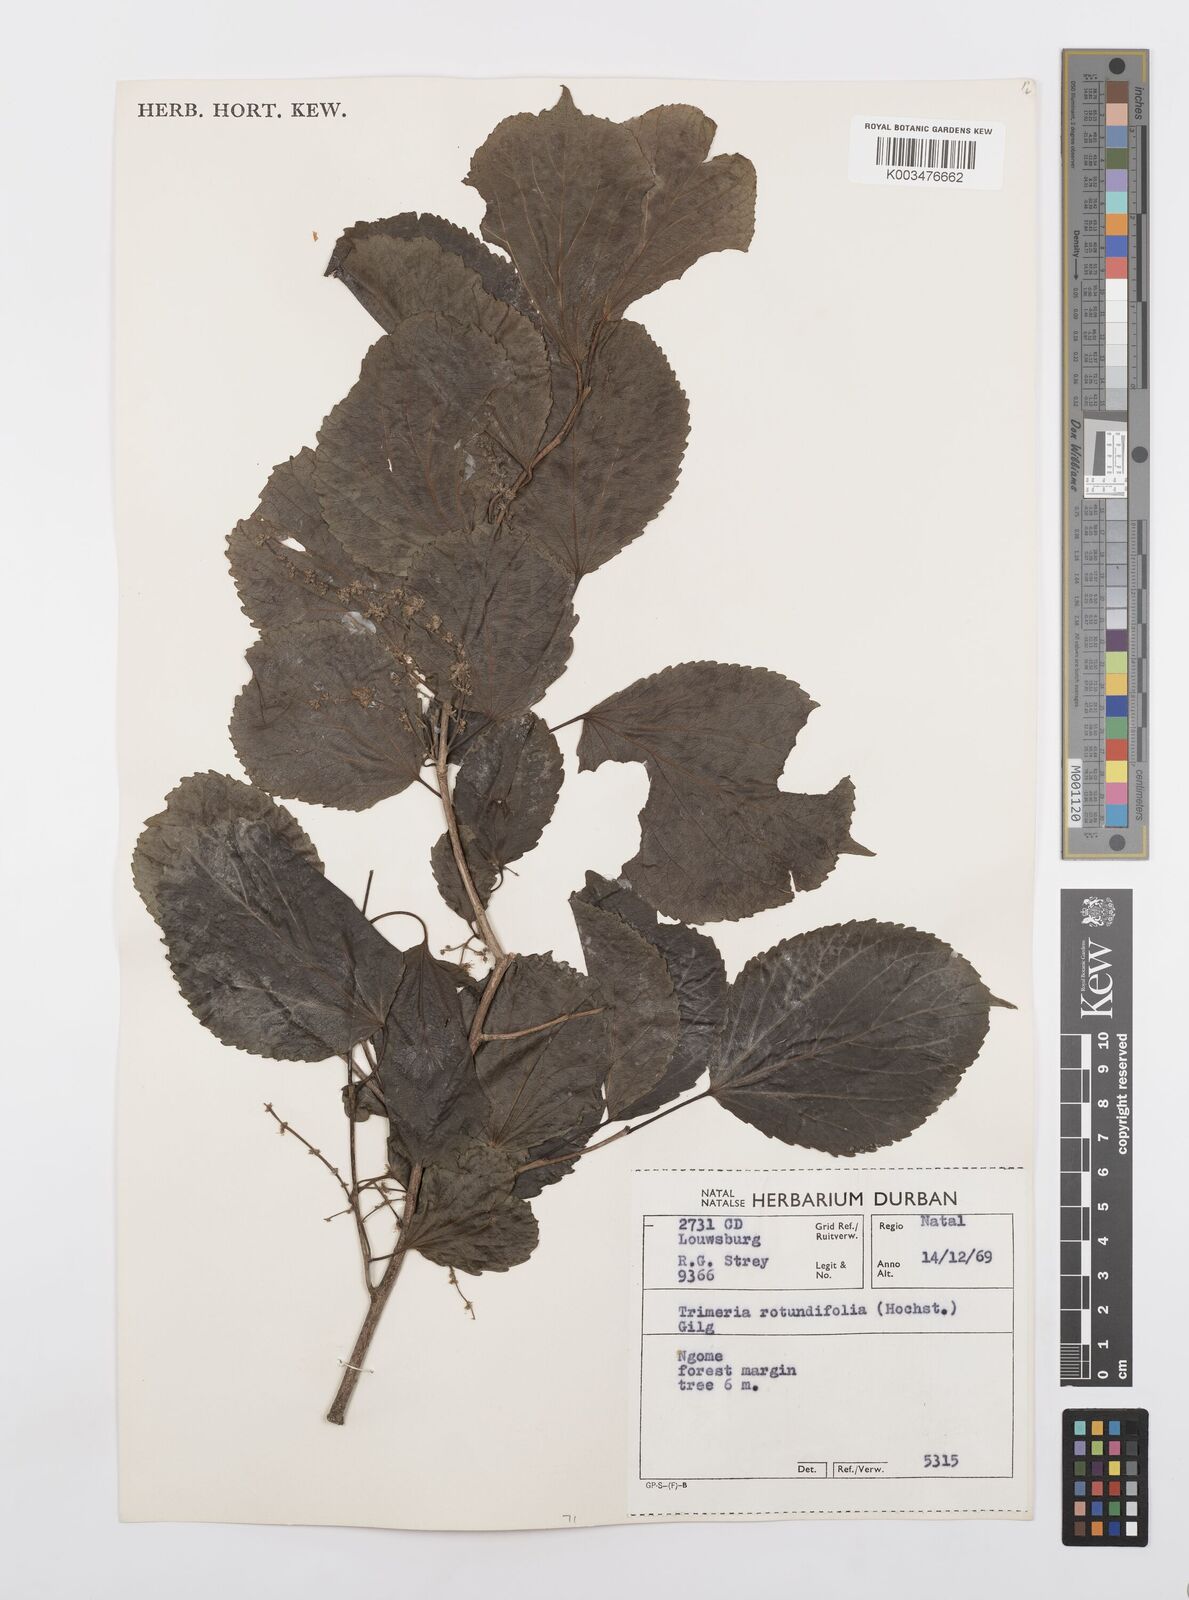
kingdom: Plantae
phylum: Tracheophyta
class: Magnoliopsida
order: Malpighiales
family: Salicaceae
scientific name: Salicaceae
